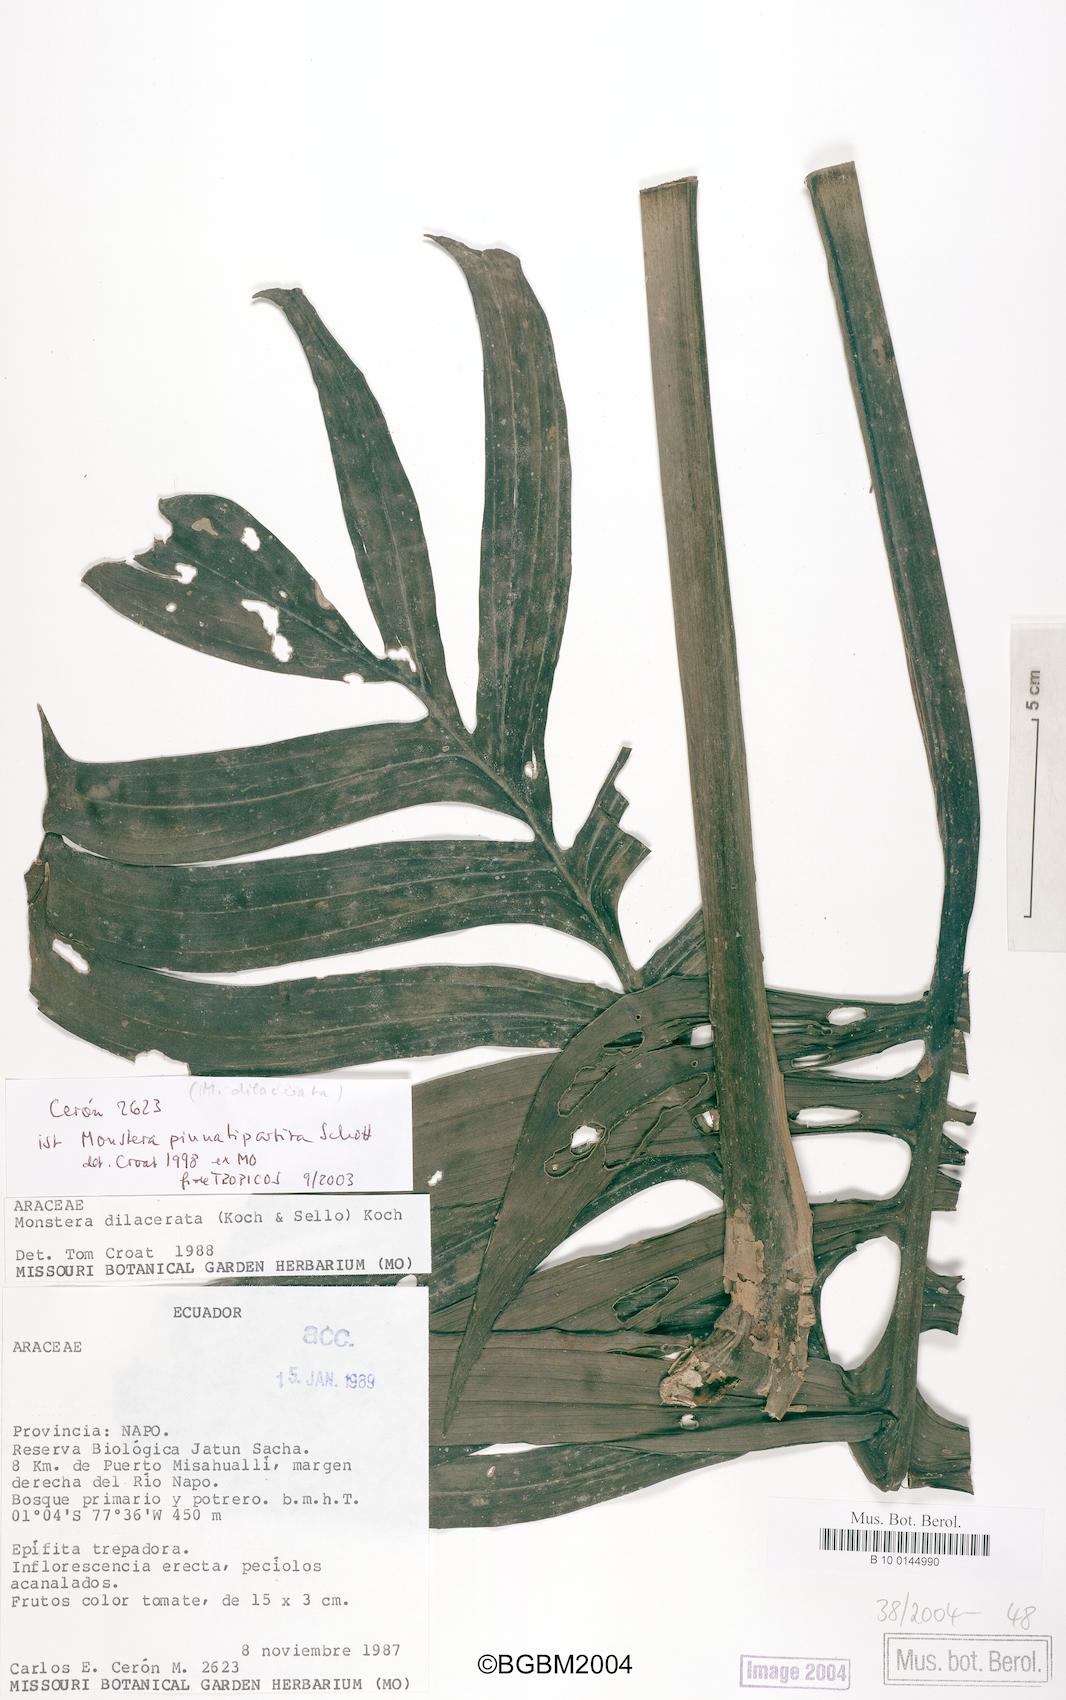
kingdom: Plantae
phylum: Tracheophyta
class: Liliopsida
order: Alismatales
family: Araceae
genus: Monstera
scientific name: Monstera pinnatipartita
